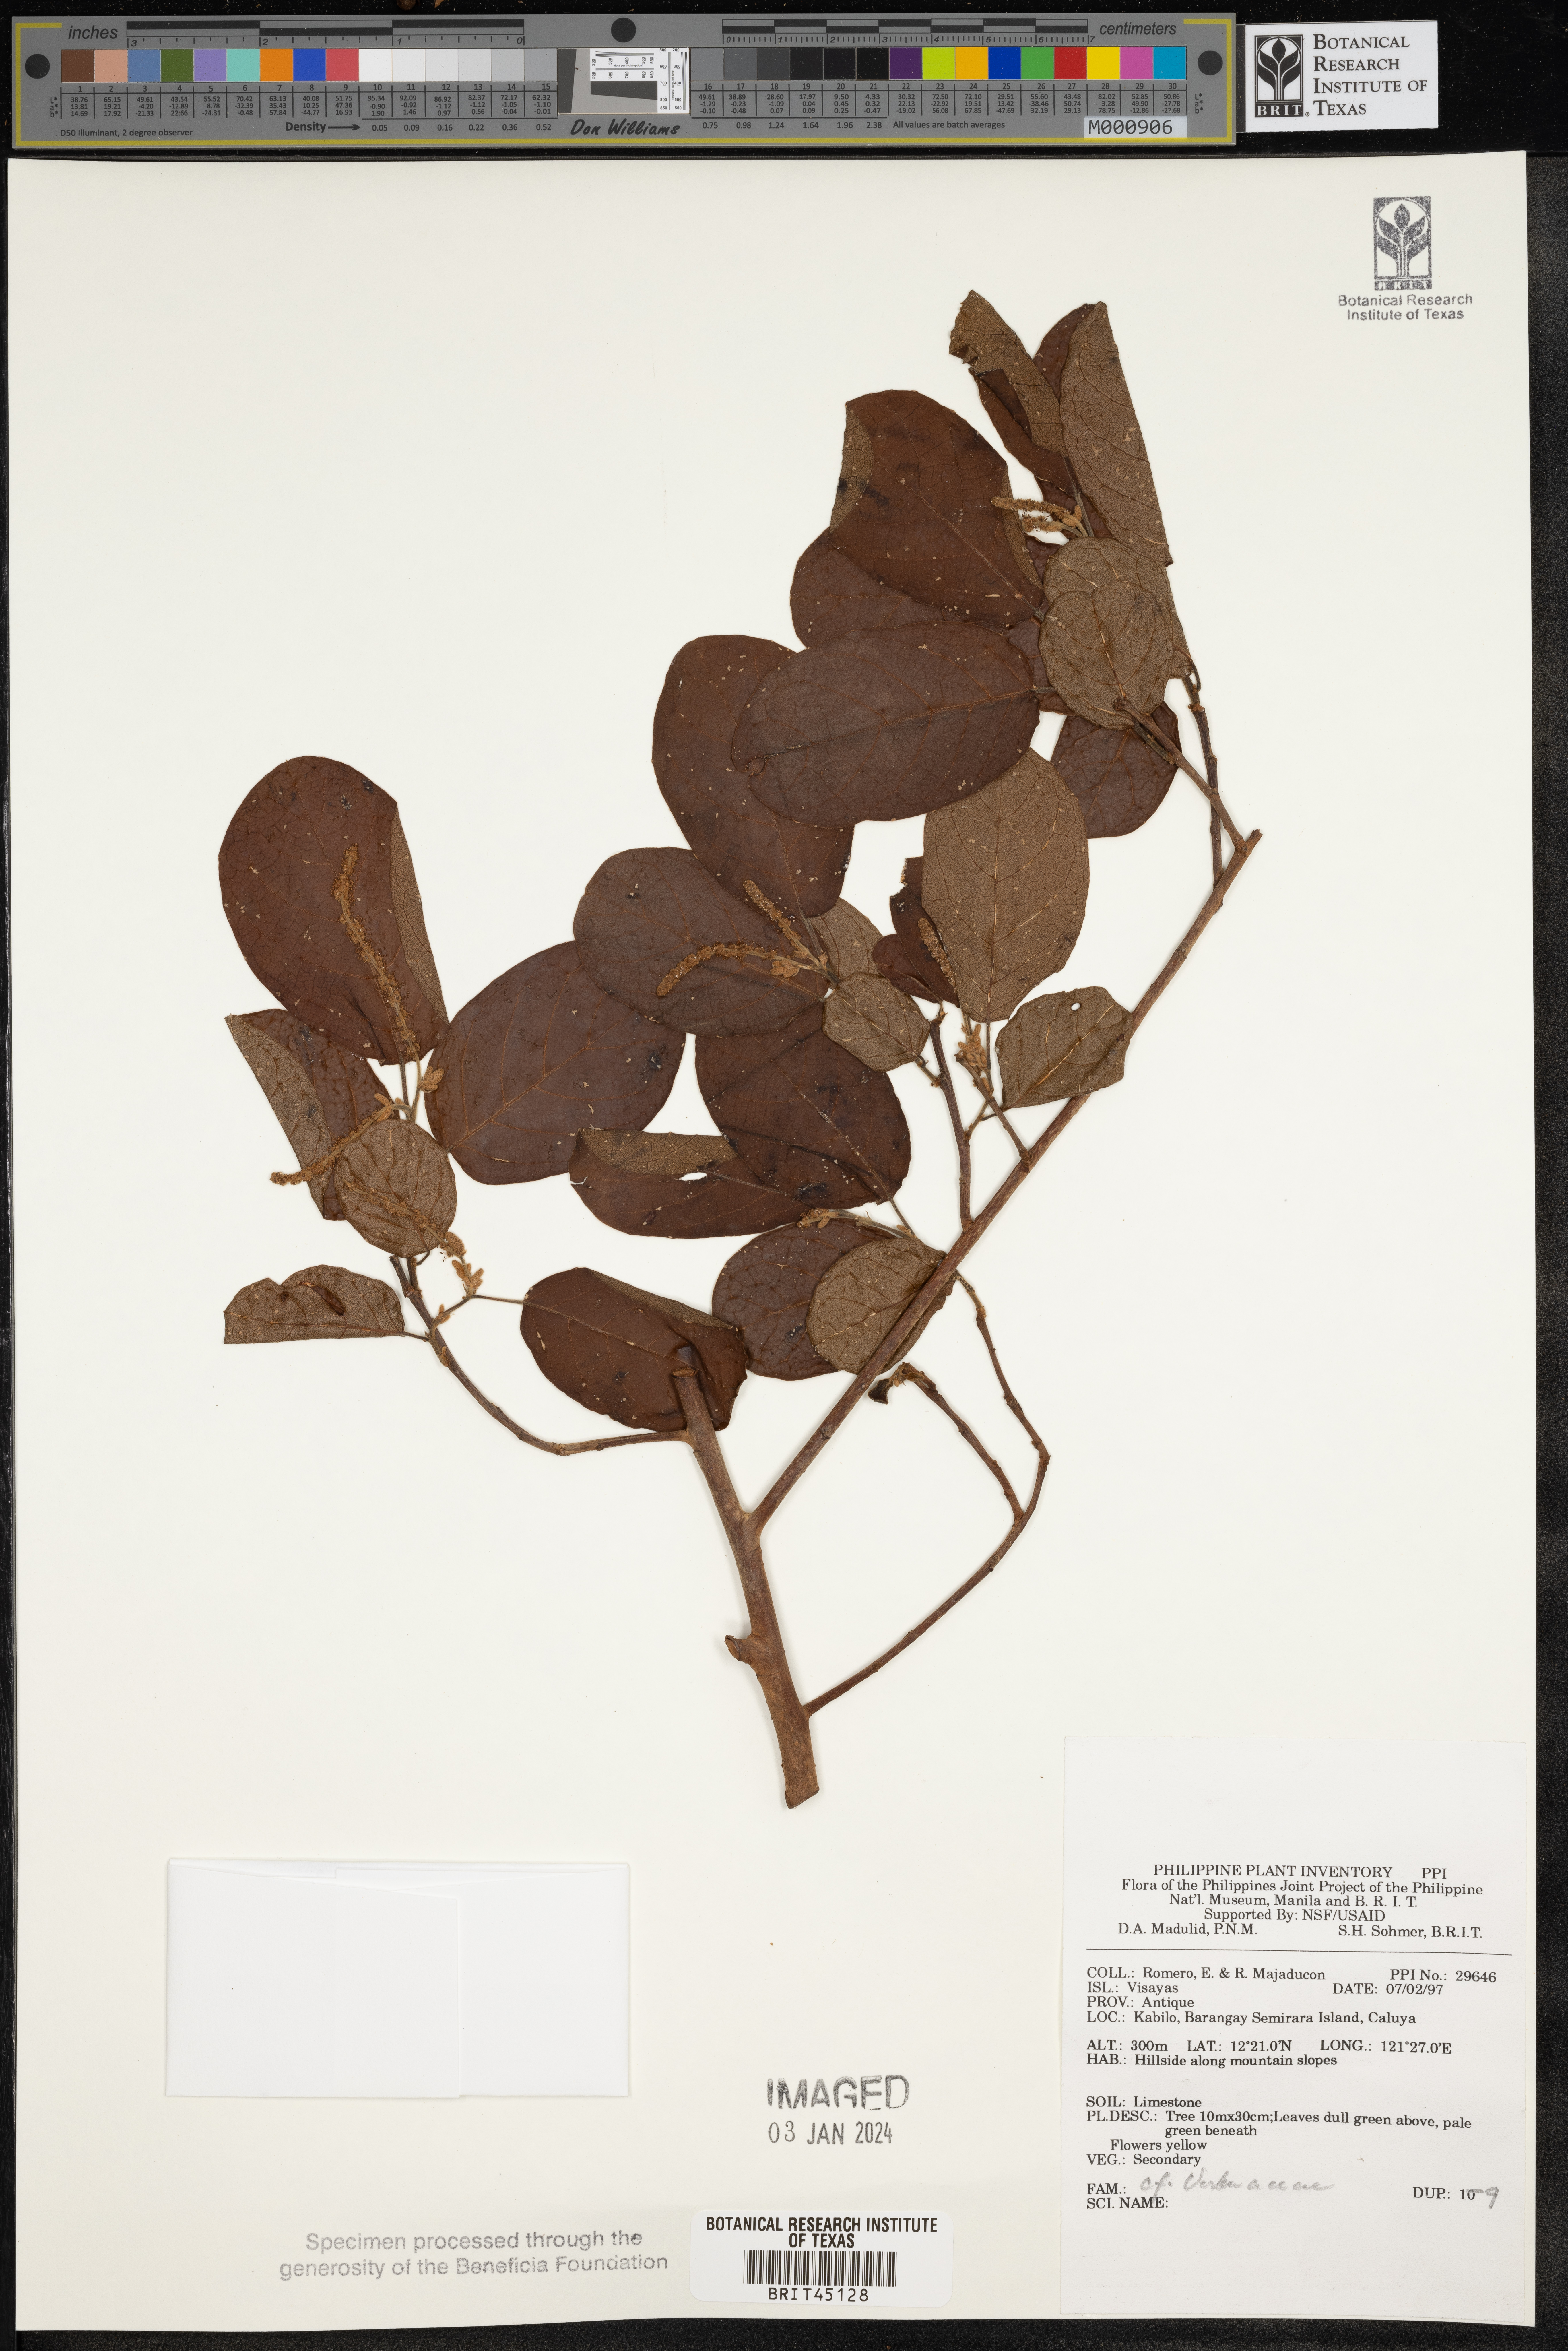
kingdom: Plantae
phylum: Tracheophyta
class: Magnoliopsida
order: Lamiales
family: Verbenaceae
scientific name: Verbenaceae
